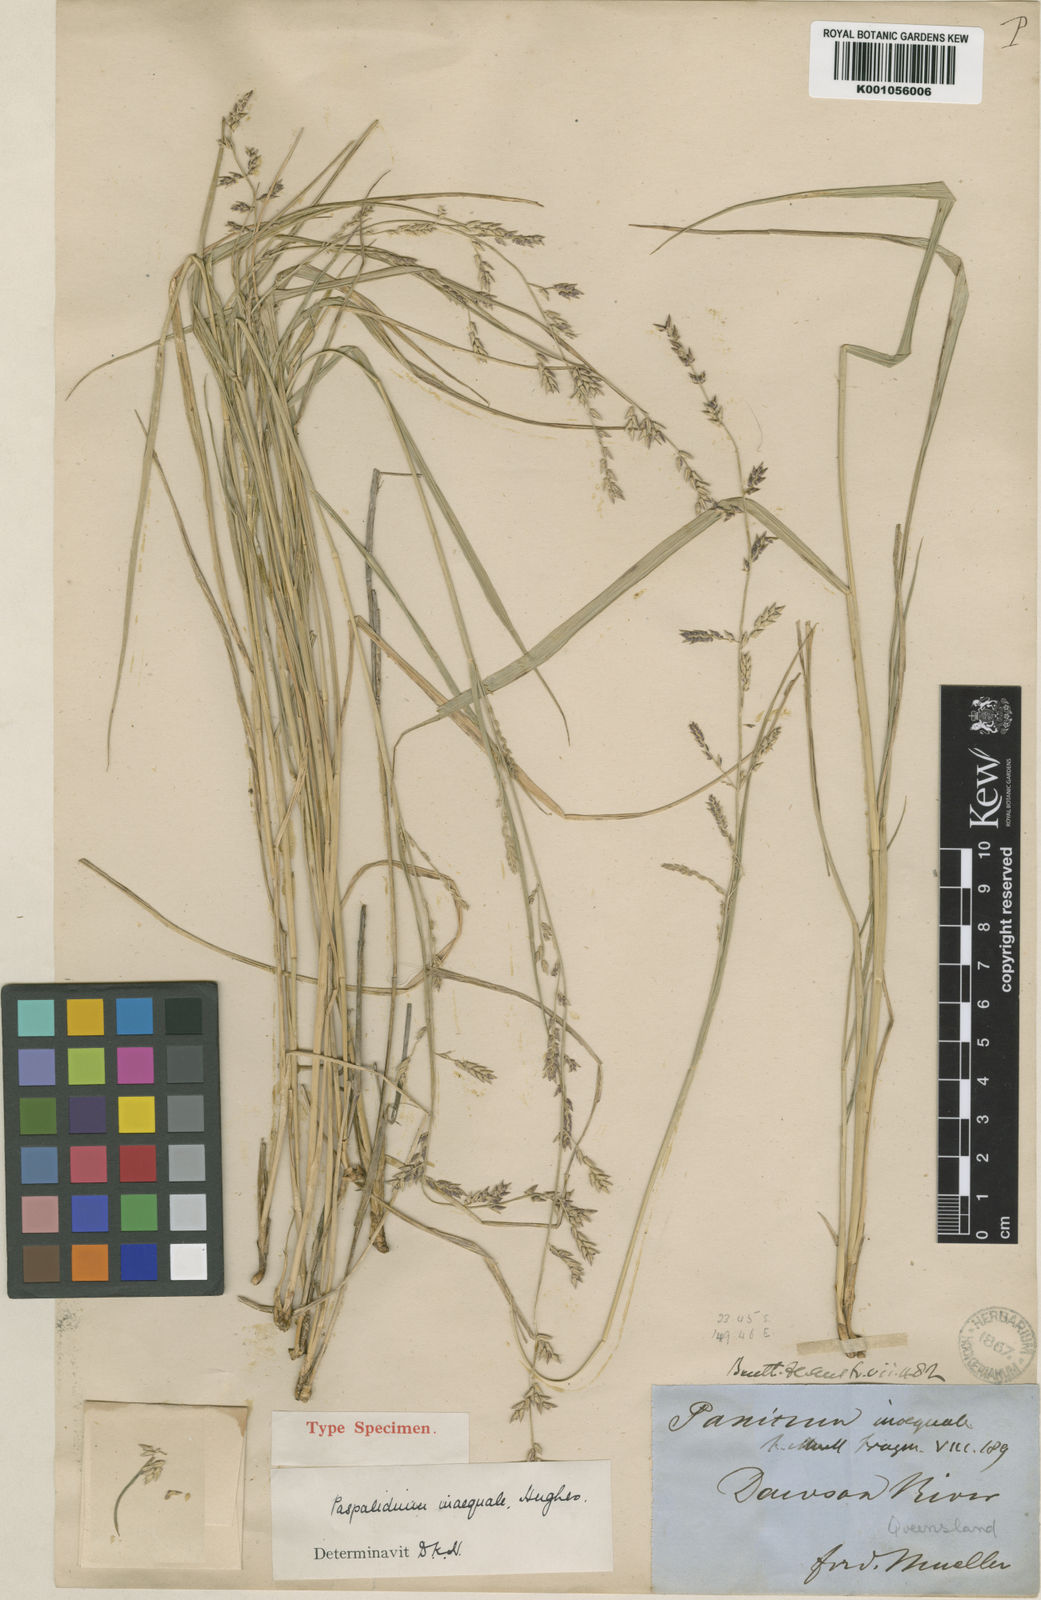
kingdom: Plantae
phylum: Tracheophyta
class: Liliopsida
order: Poales
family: Poaceae
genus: Holcolemma
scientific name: Holcolemma dispar
